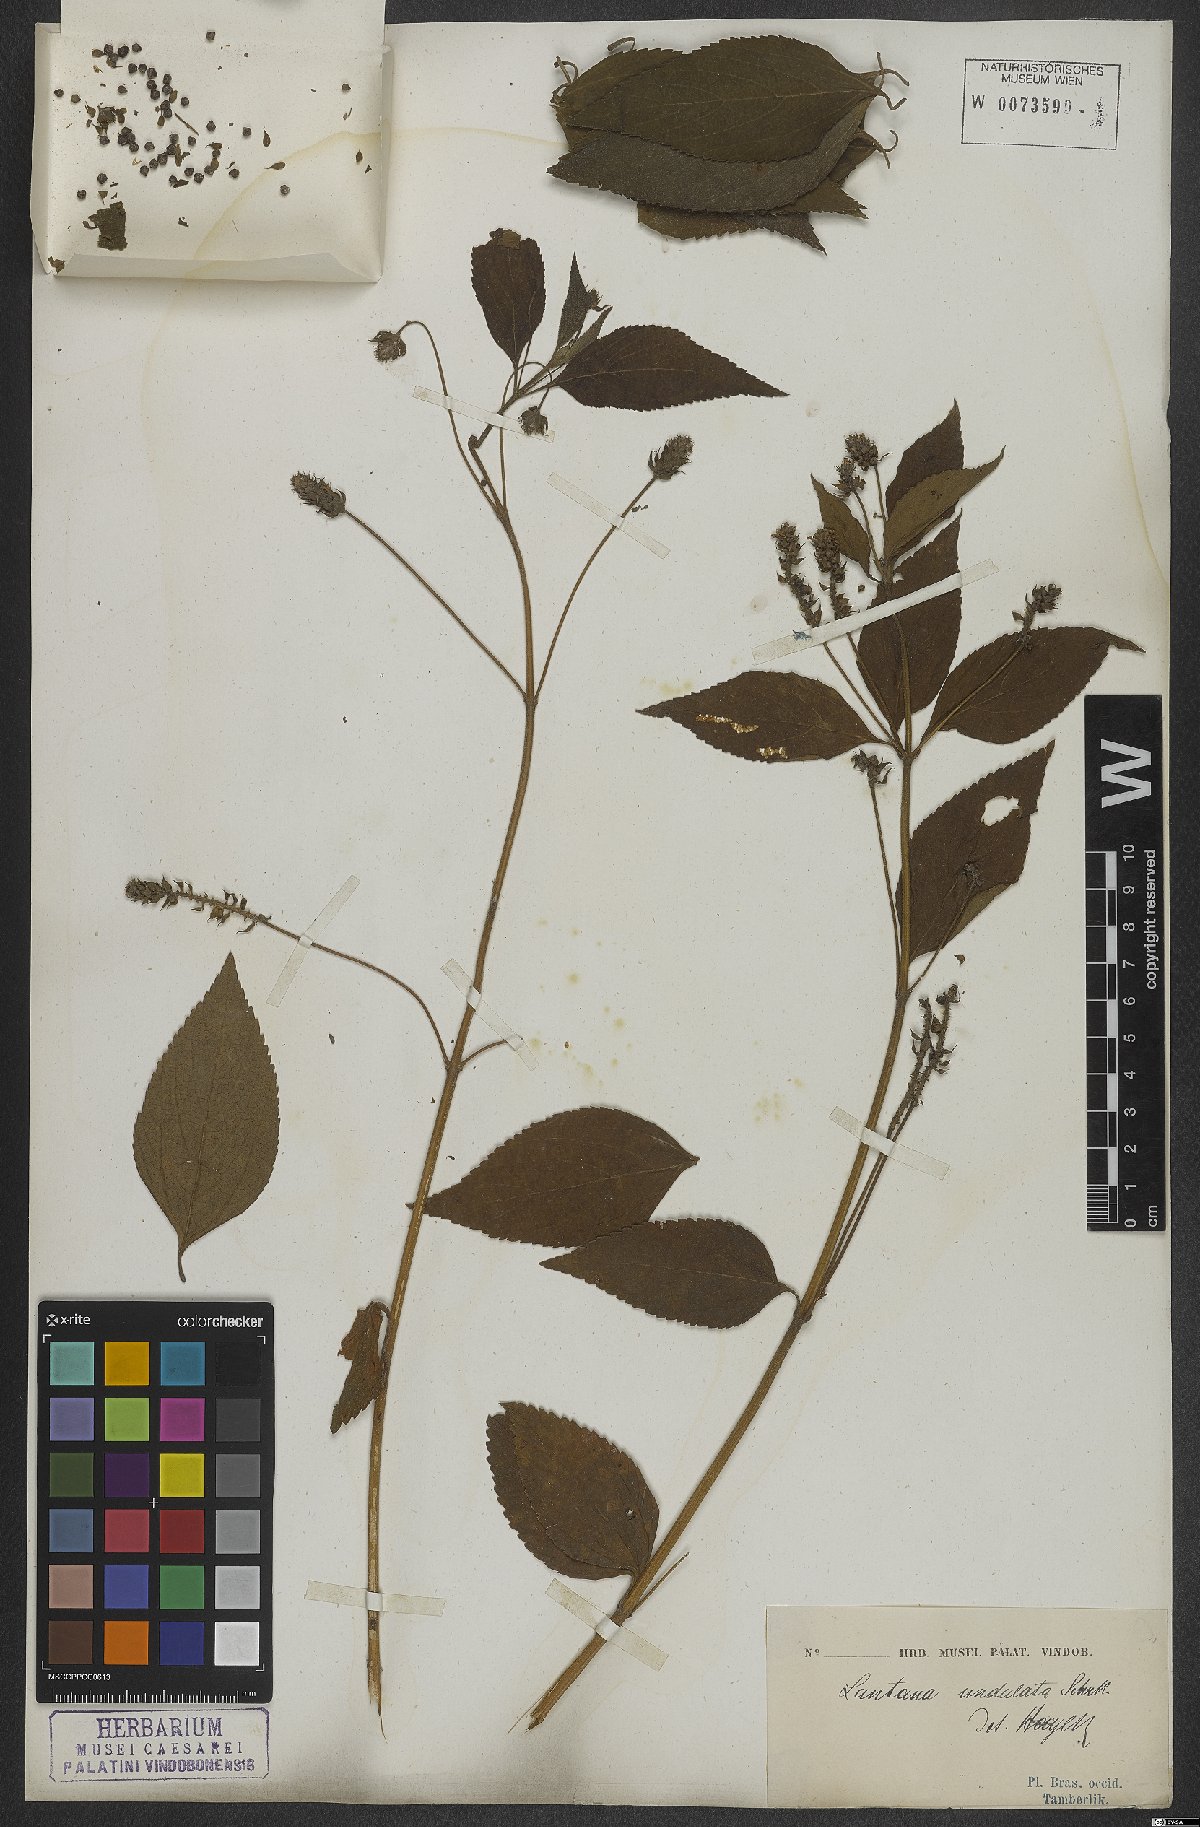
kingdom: Plantae
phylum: Tracheophyta
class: Magnoliopsida
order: Lamiales
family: Verbenaceae
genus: Lantana
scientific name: Lantana undulata
